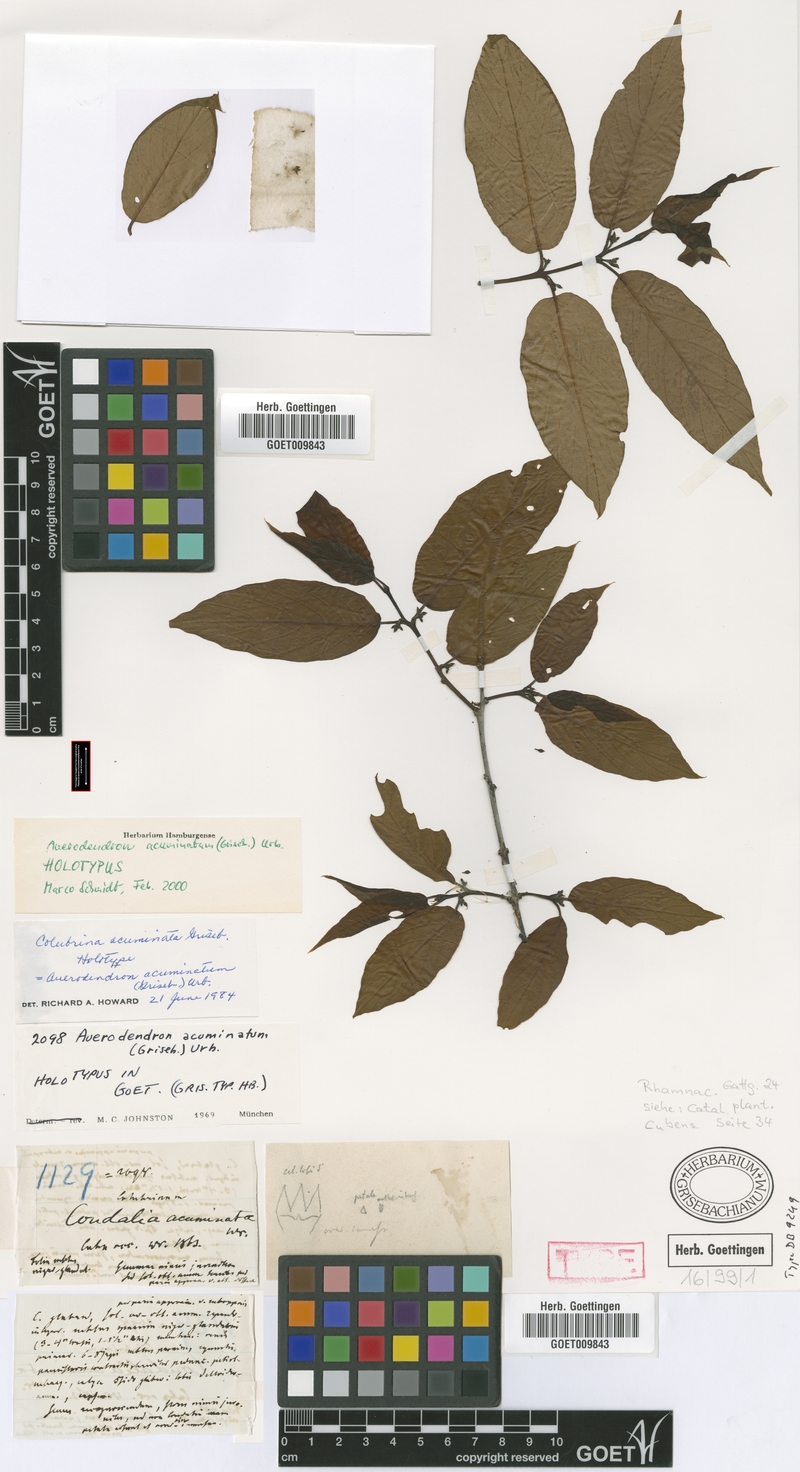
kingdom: Plantae
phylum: Tracheophyta
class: Magnoliopsida
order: Rosales
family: Rhamnaceae
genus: Auerodendron
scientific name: Auerodendron acuminatum
